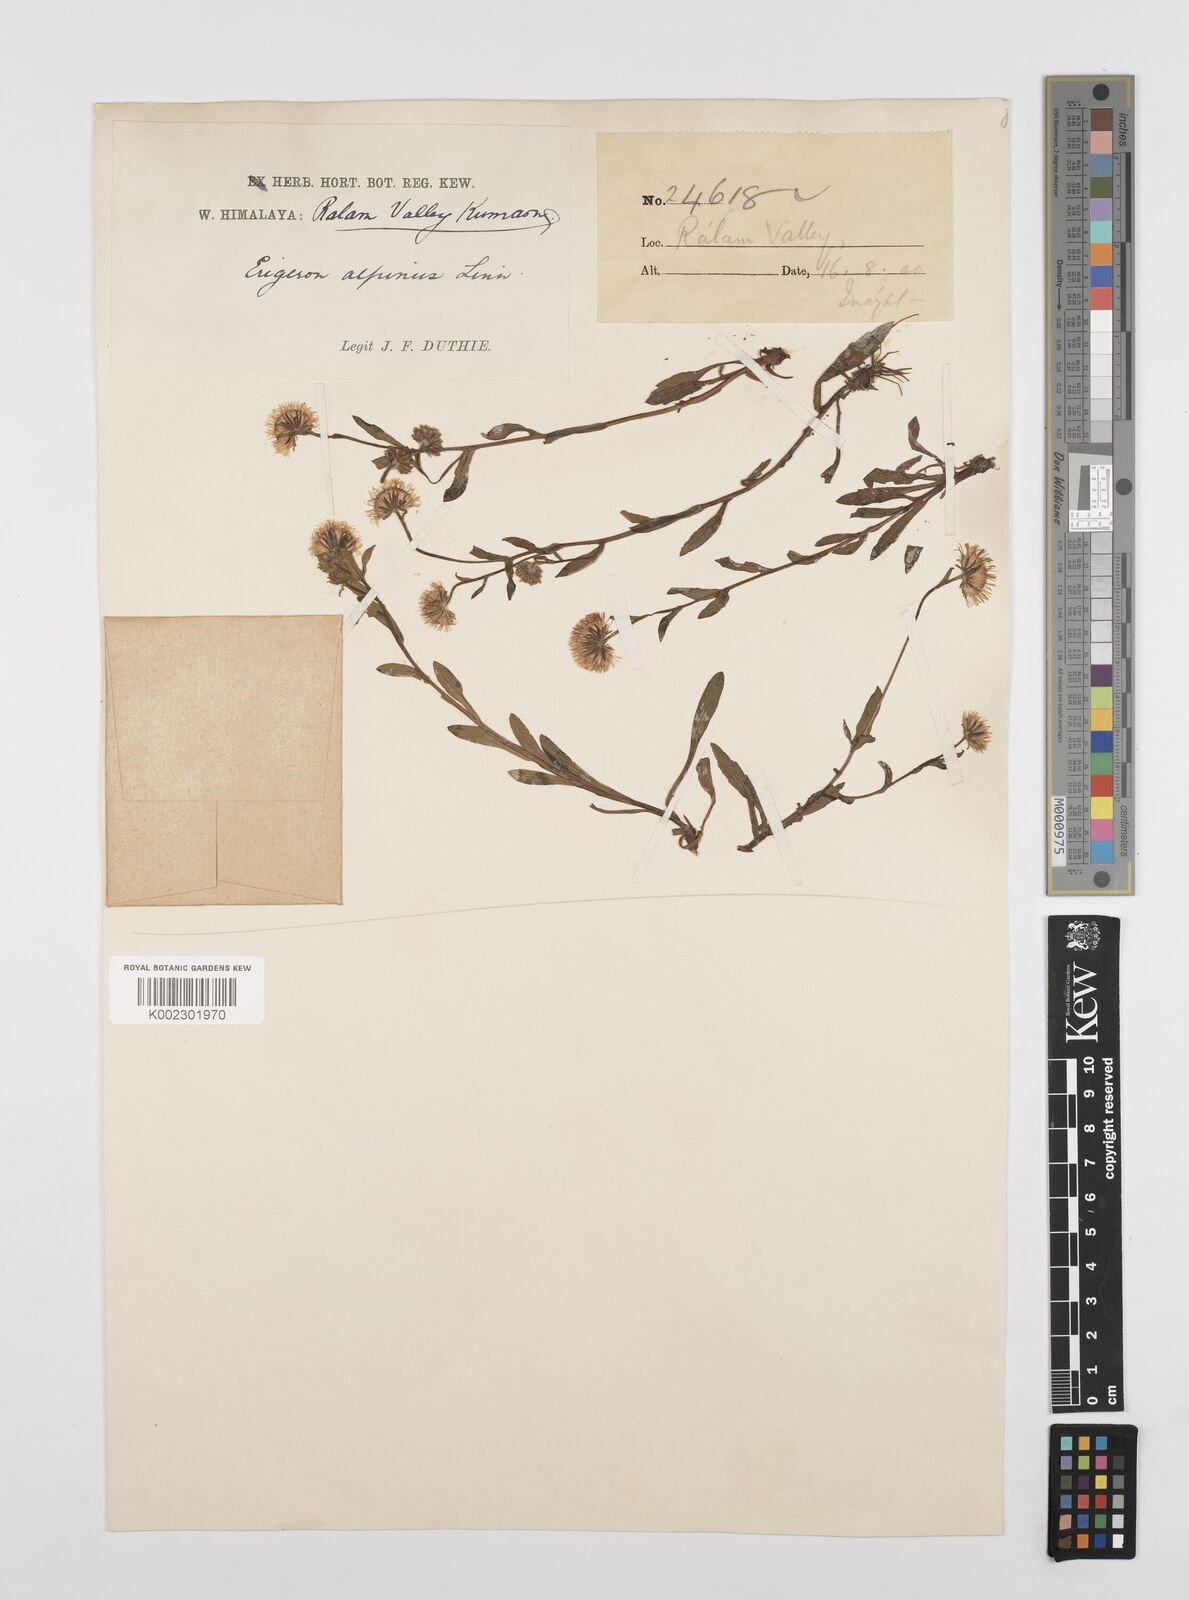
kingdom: Plantae
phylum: Tracheophyta
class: Magnoliopsida
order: Asterales
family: Asteraceae
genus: Erigeron
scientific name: Erigeron alpinus
